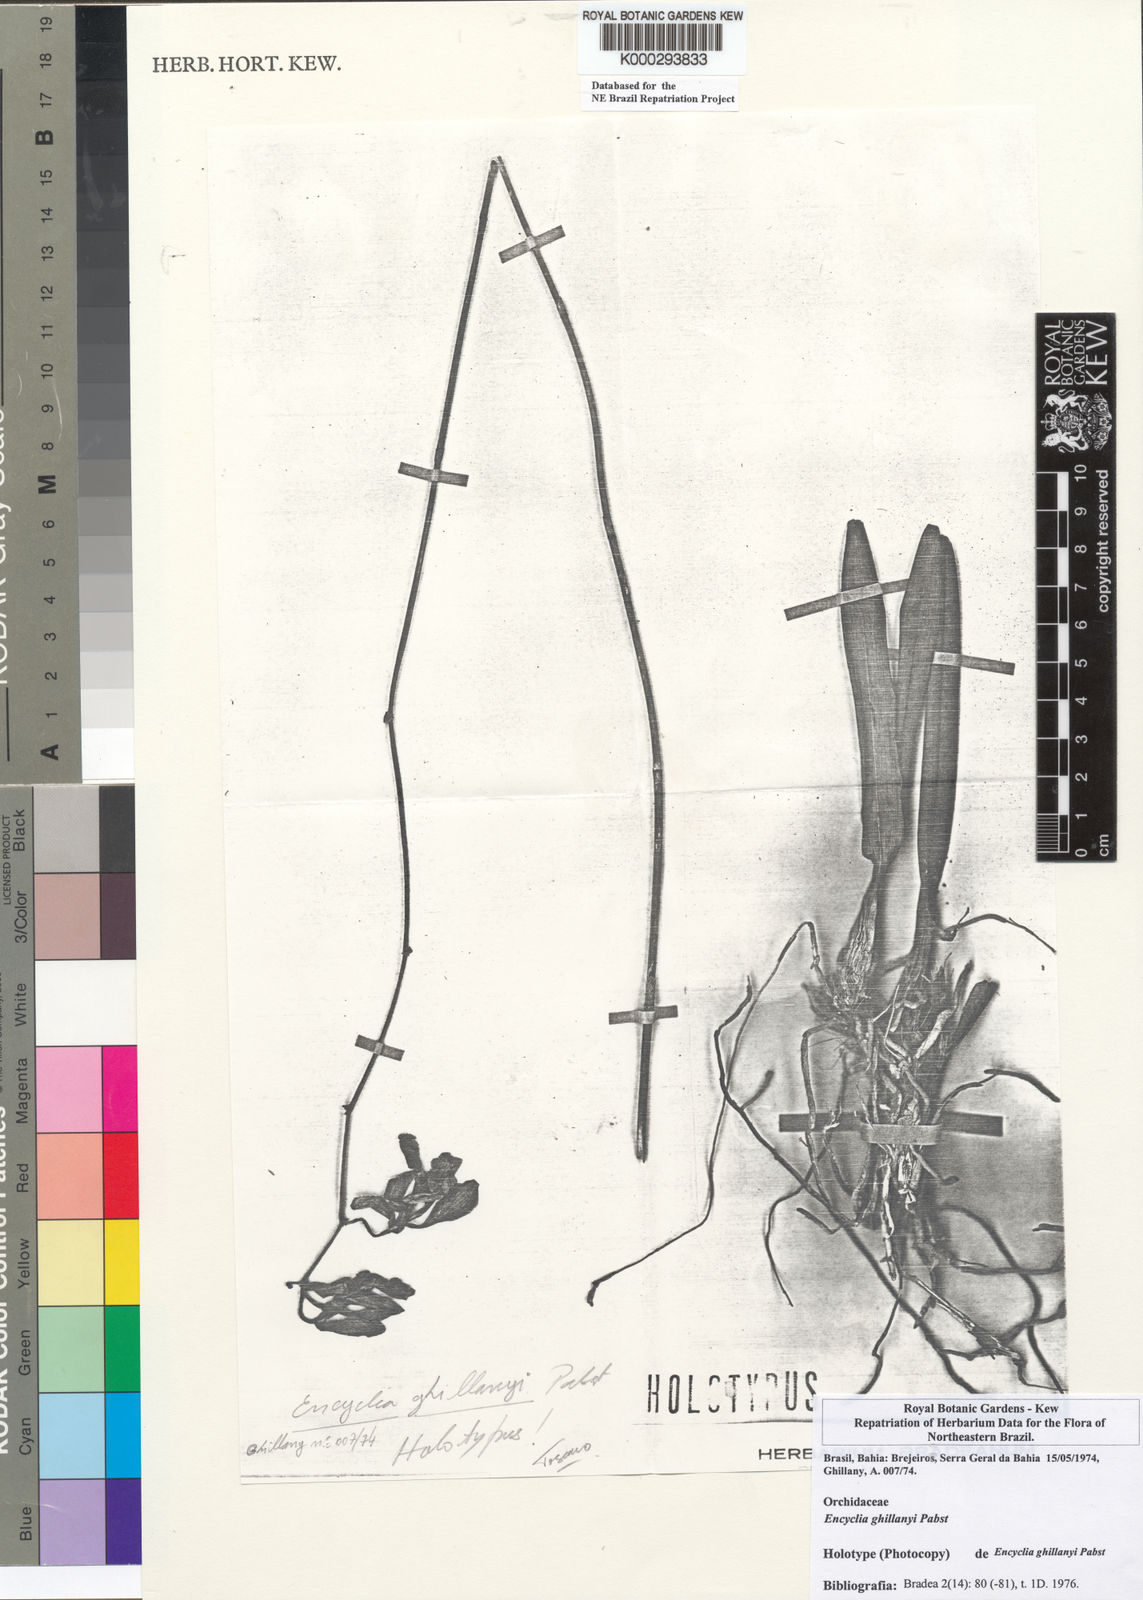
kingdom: Plantae
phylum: Tracheophyta
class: Liliopsida
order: Asparagales
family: Orchidaceae
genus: Encyclia
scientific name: Encyclia jenischiana
